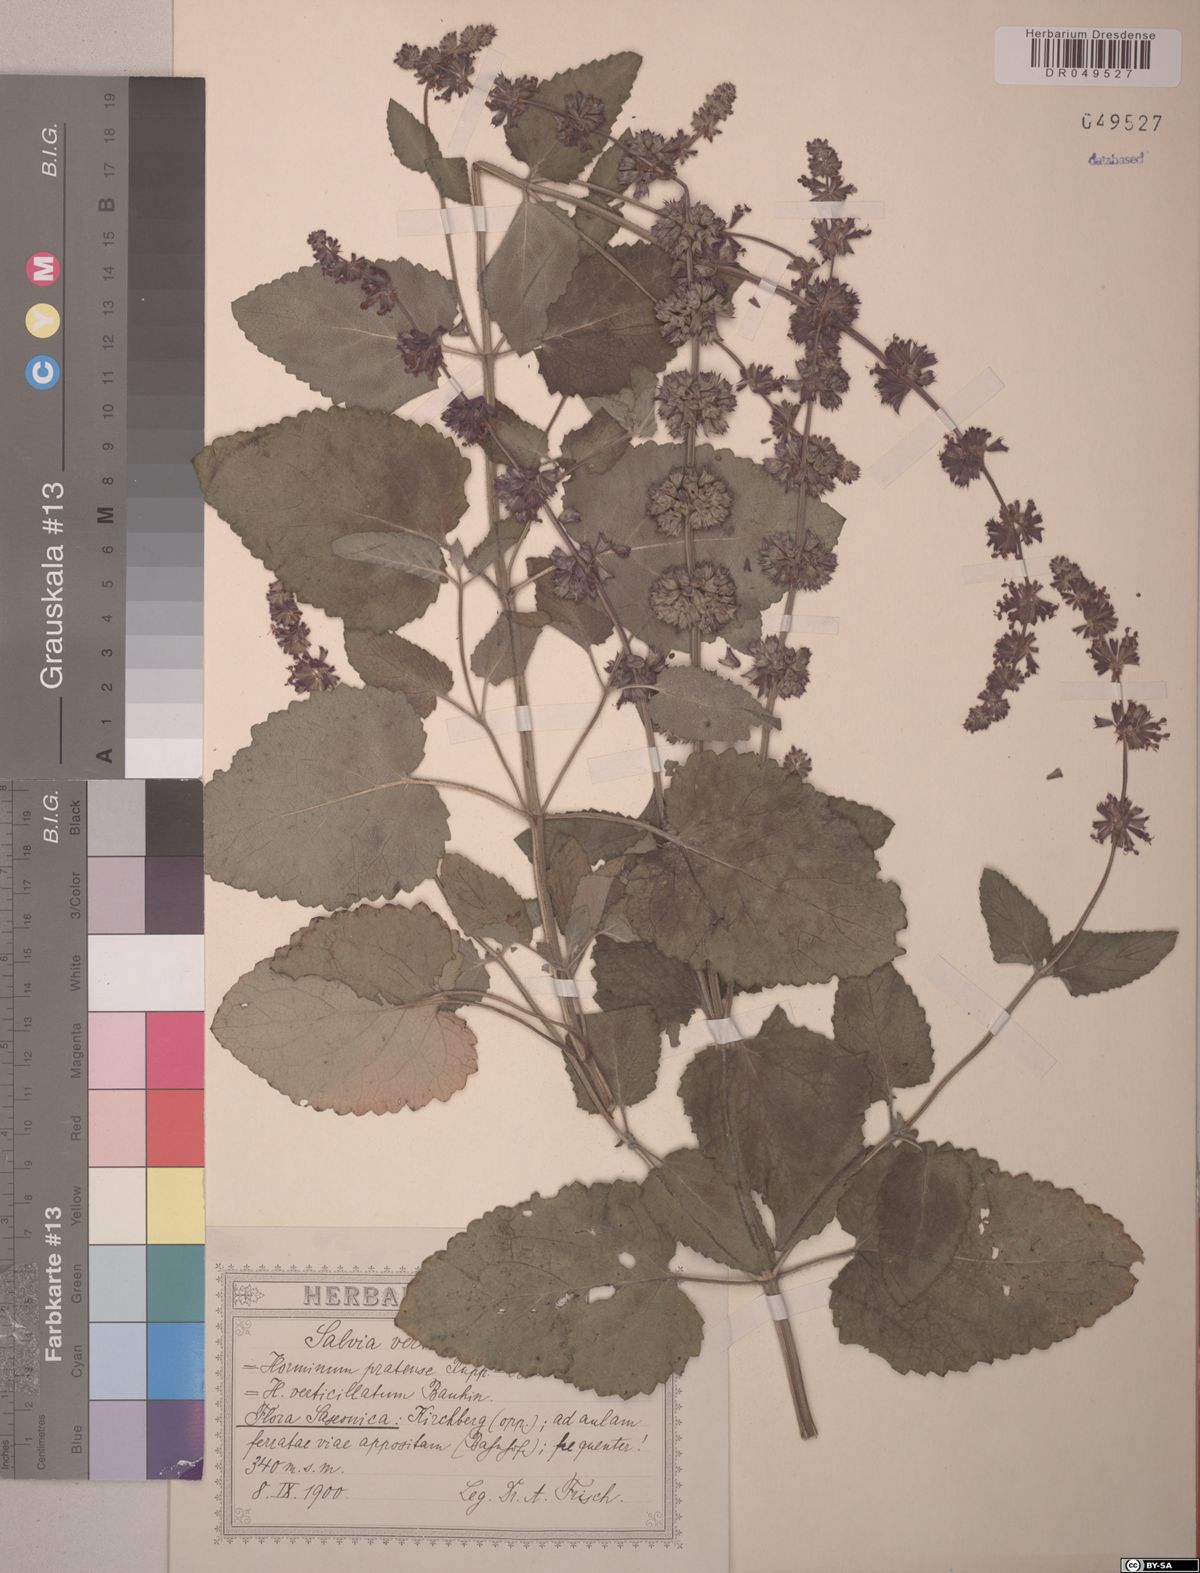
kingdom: Plantae
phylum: Tracheophyta
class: Magnoliopsida
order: Lamiales
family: Lamiaceae
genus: Salvia
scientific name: Salvia verticillata
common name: Whorled clary
